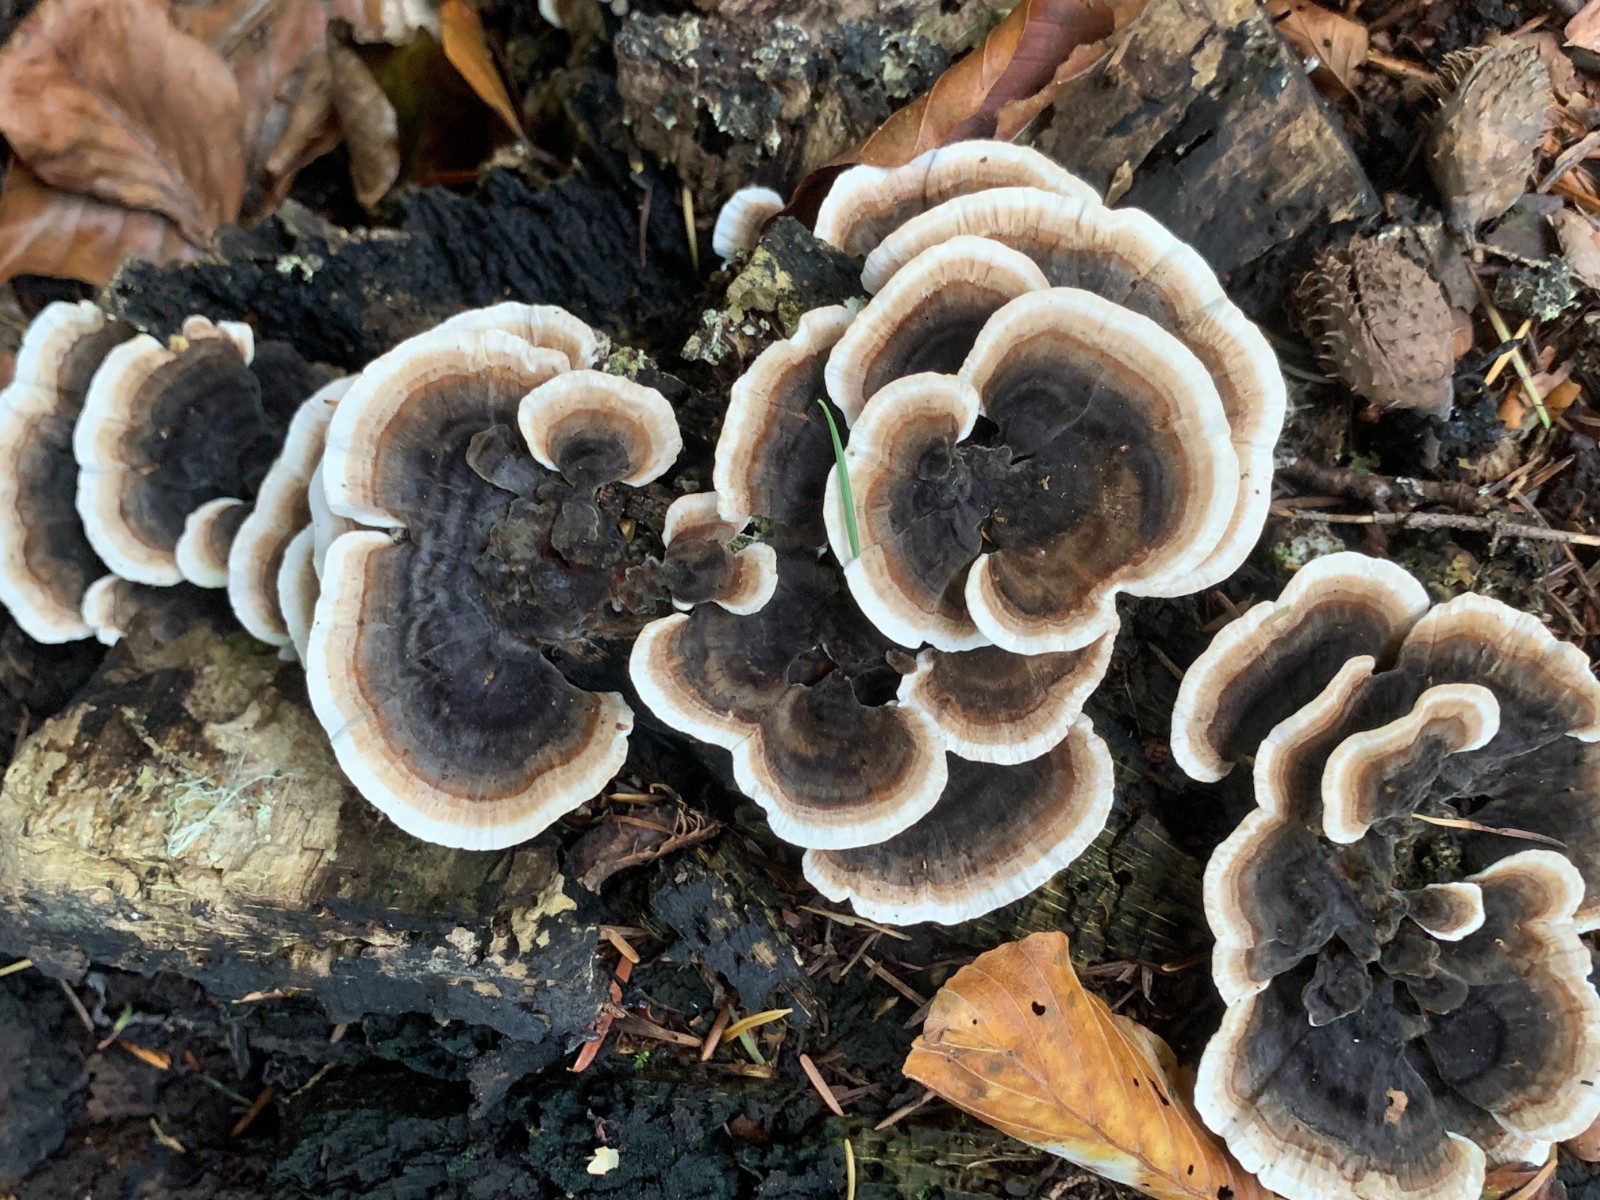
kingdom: Fungi
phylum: Basidiomycota
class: Agaricomycetes
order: Polyporales
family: Polyporaceae
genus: Trametes
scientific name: Trametes versicolor
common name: broget læderporesvamp
